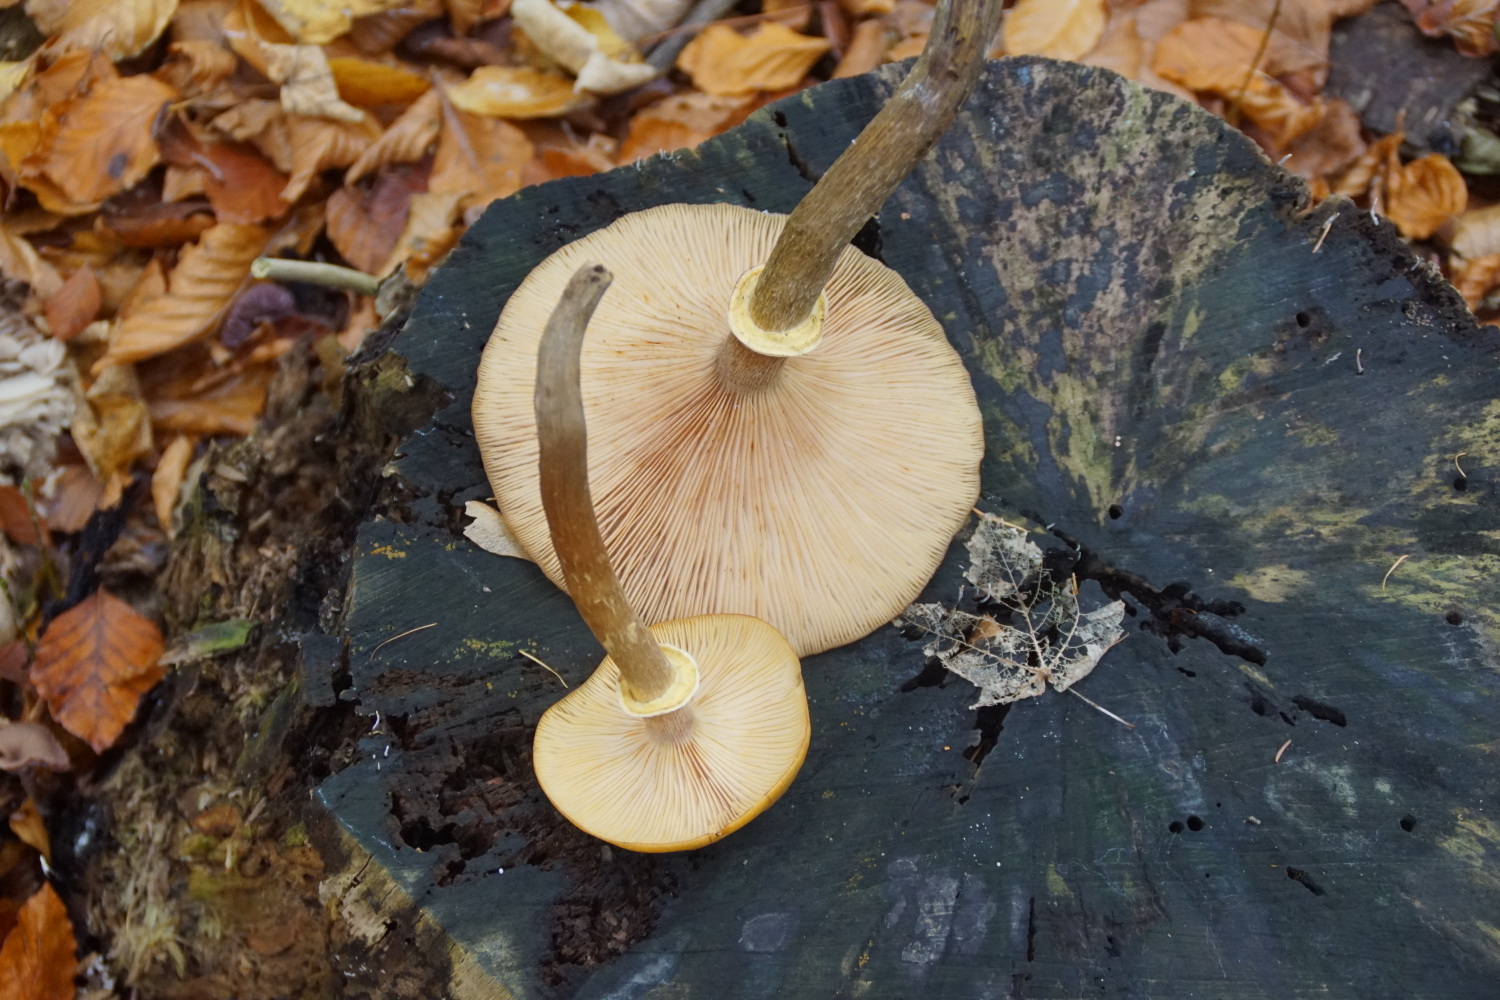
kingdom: Fungi
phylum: Basidiomycota
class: Agaricomycetes
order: Agaricales
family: Physalacriaceae
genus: Armillaria
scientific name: Armillaria mellea
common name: ægte honningsvamp
